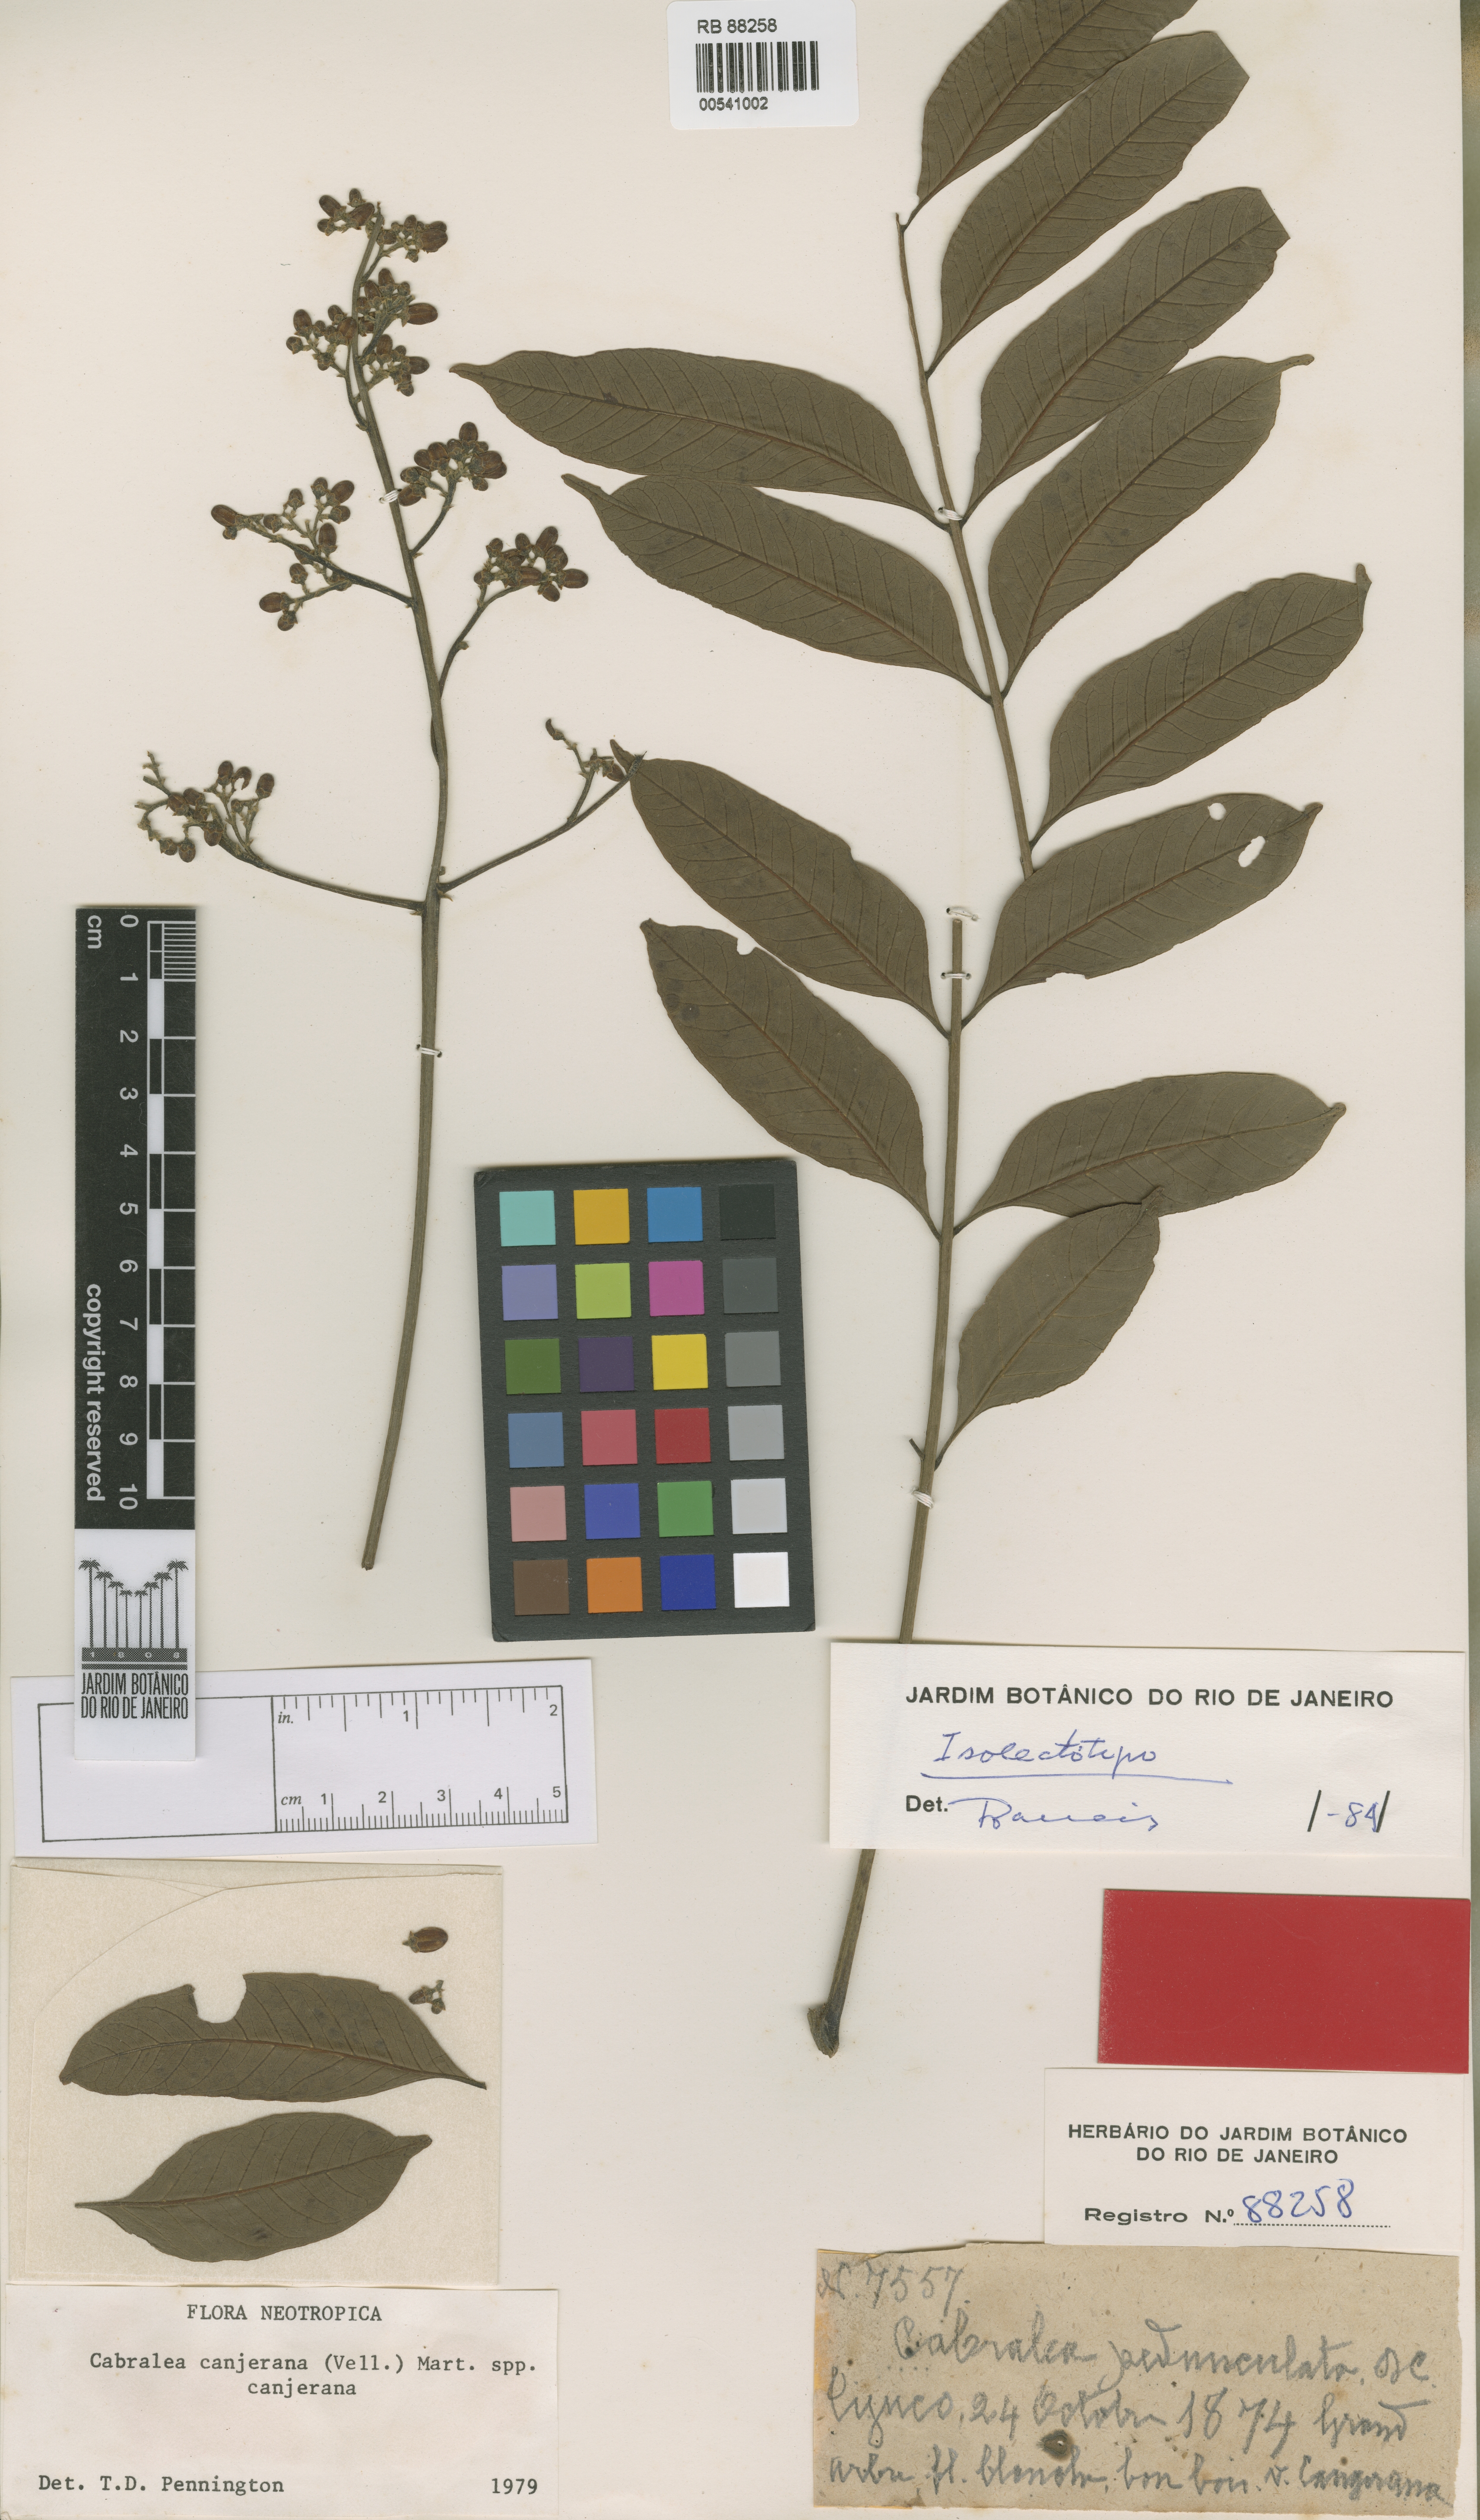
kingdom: Plantae
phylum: Tracheophyta
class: Magnoliopsida
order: Sapindales
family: Meliaceae
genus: Cabralea
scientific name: Cabralea canjerana
